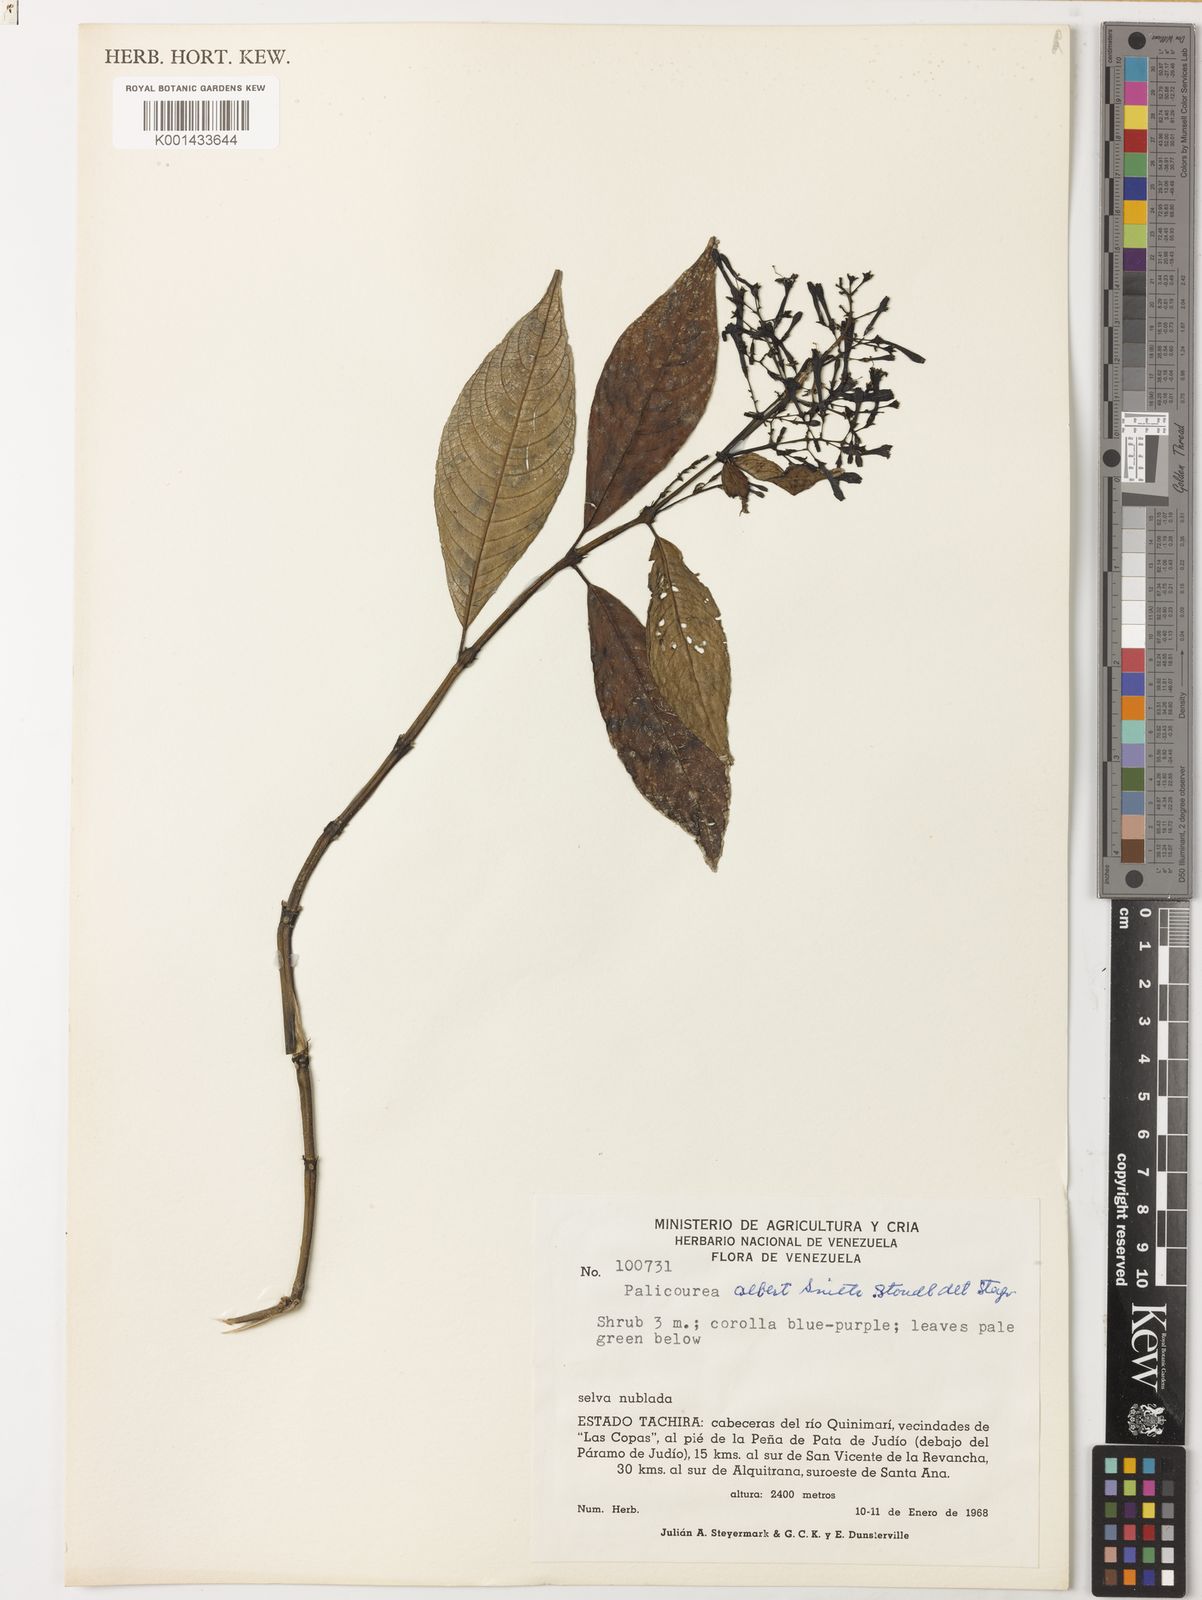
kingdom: Plantae
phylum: Tracheophyta
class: Magnoliopsida
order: Gentianales
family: Rubiaceae
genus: Palicourea
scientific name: Palicourea albert-smithii
